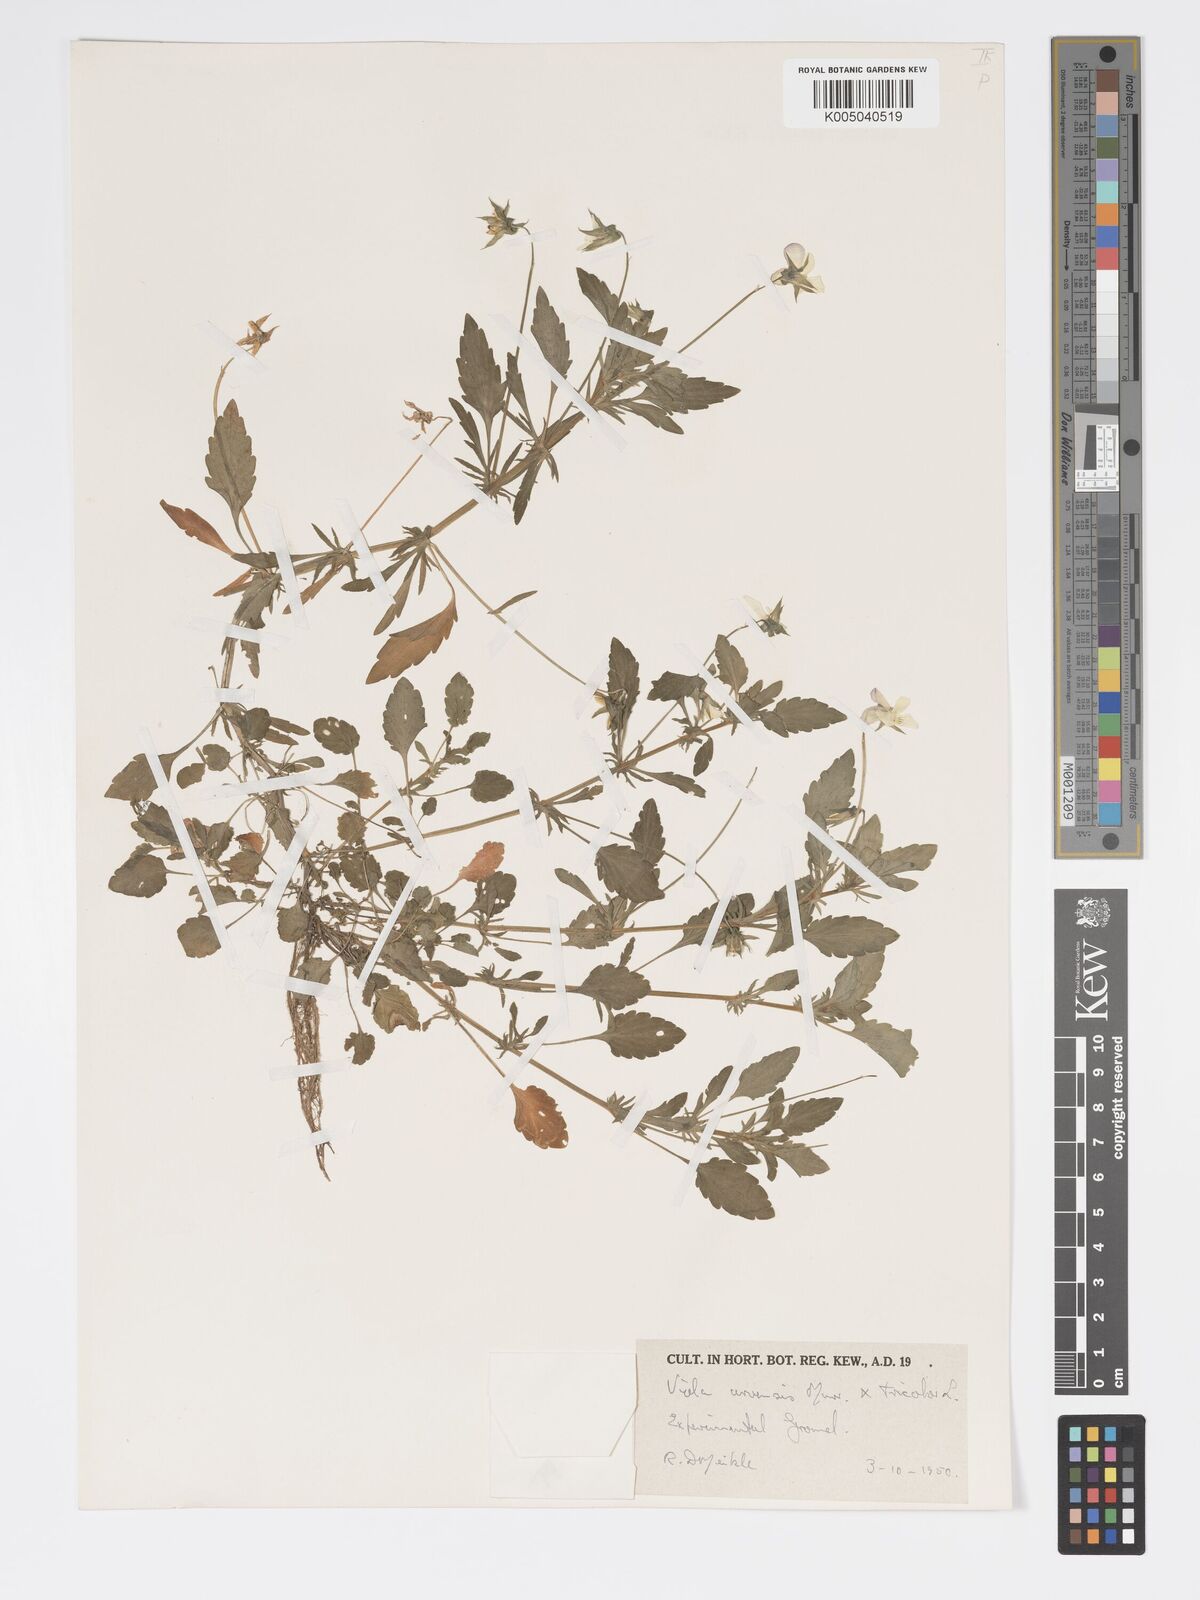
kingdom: Plantae
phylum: Tracheophyta
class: Magnoliopsida
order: Malpighiales
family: Violaceae
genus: Viola
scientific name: Viola arvensis
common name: Field pansy
